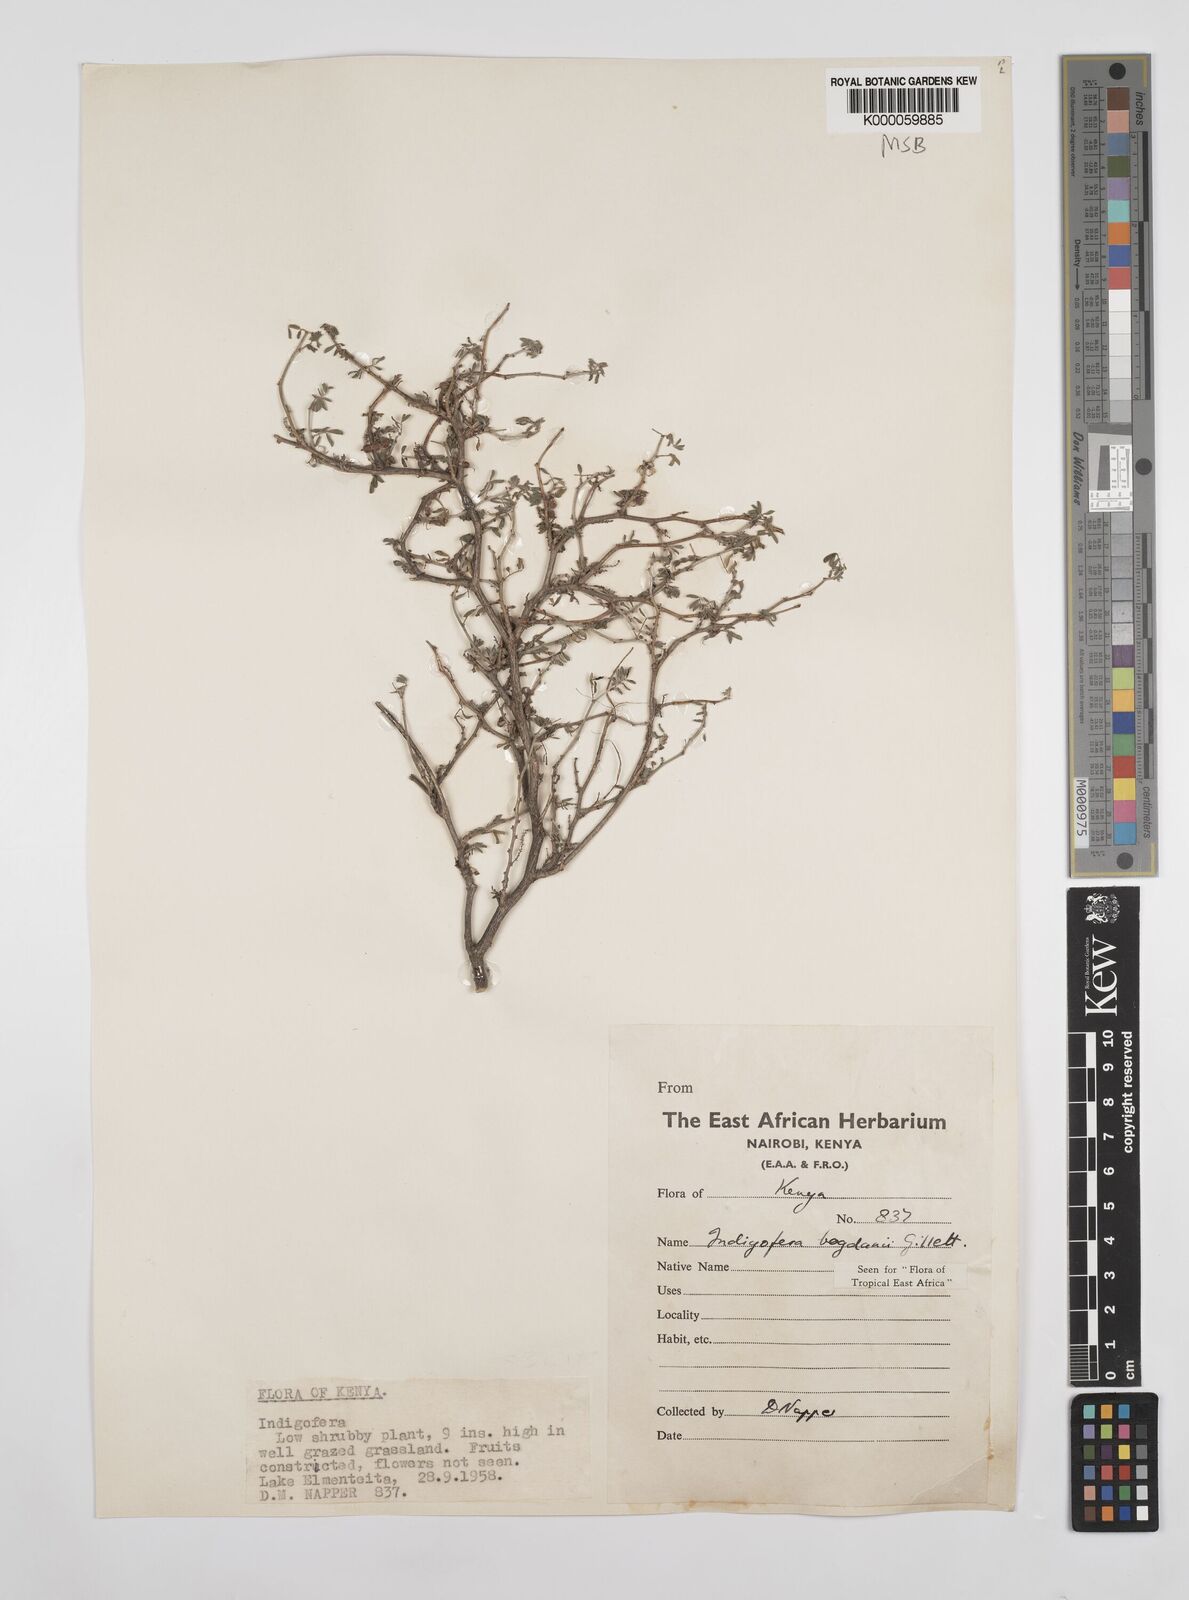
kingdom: Plantae
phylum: Tracheophyta
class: Magnoliopsida
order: Fabales
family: Fabaceae
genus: Indigofera
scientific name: Indigofera bogdanii
